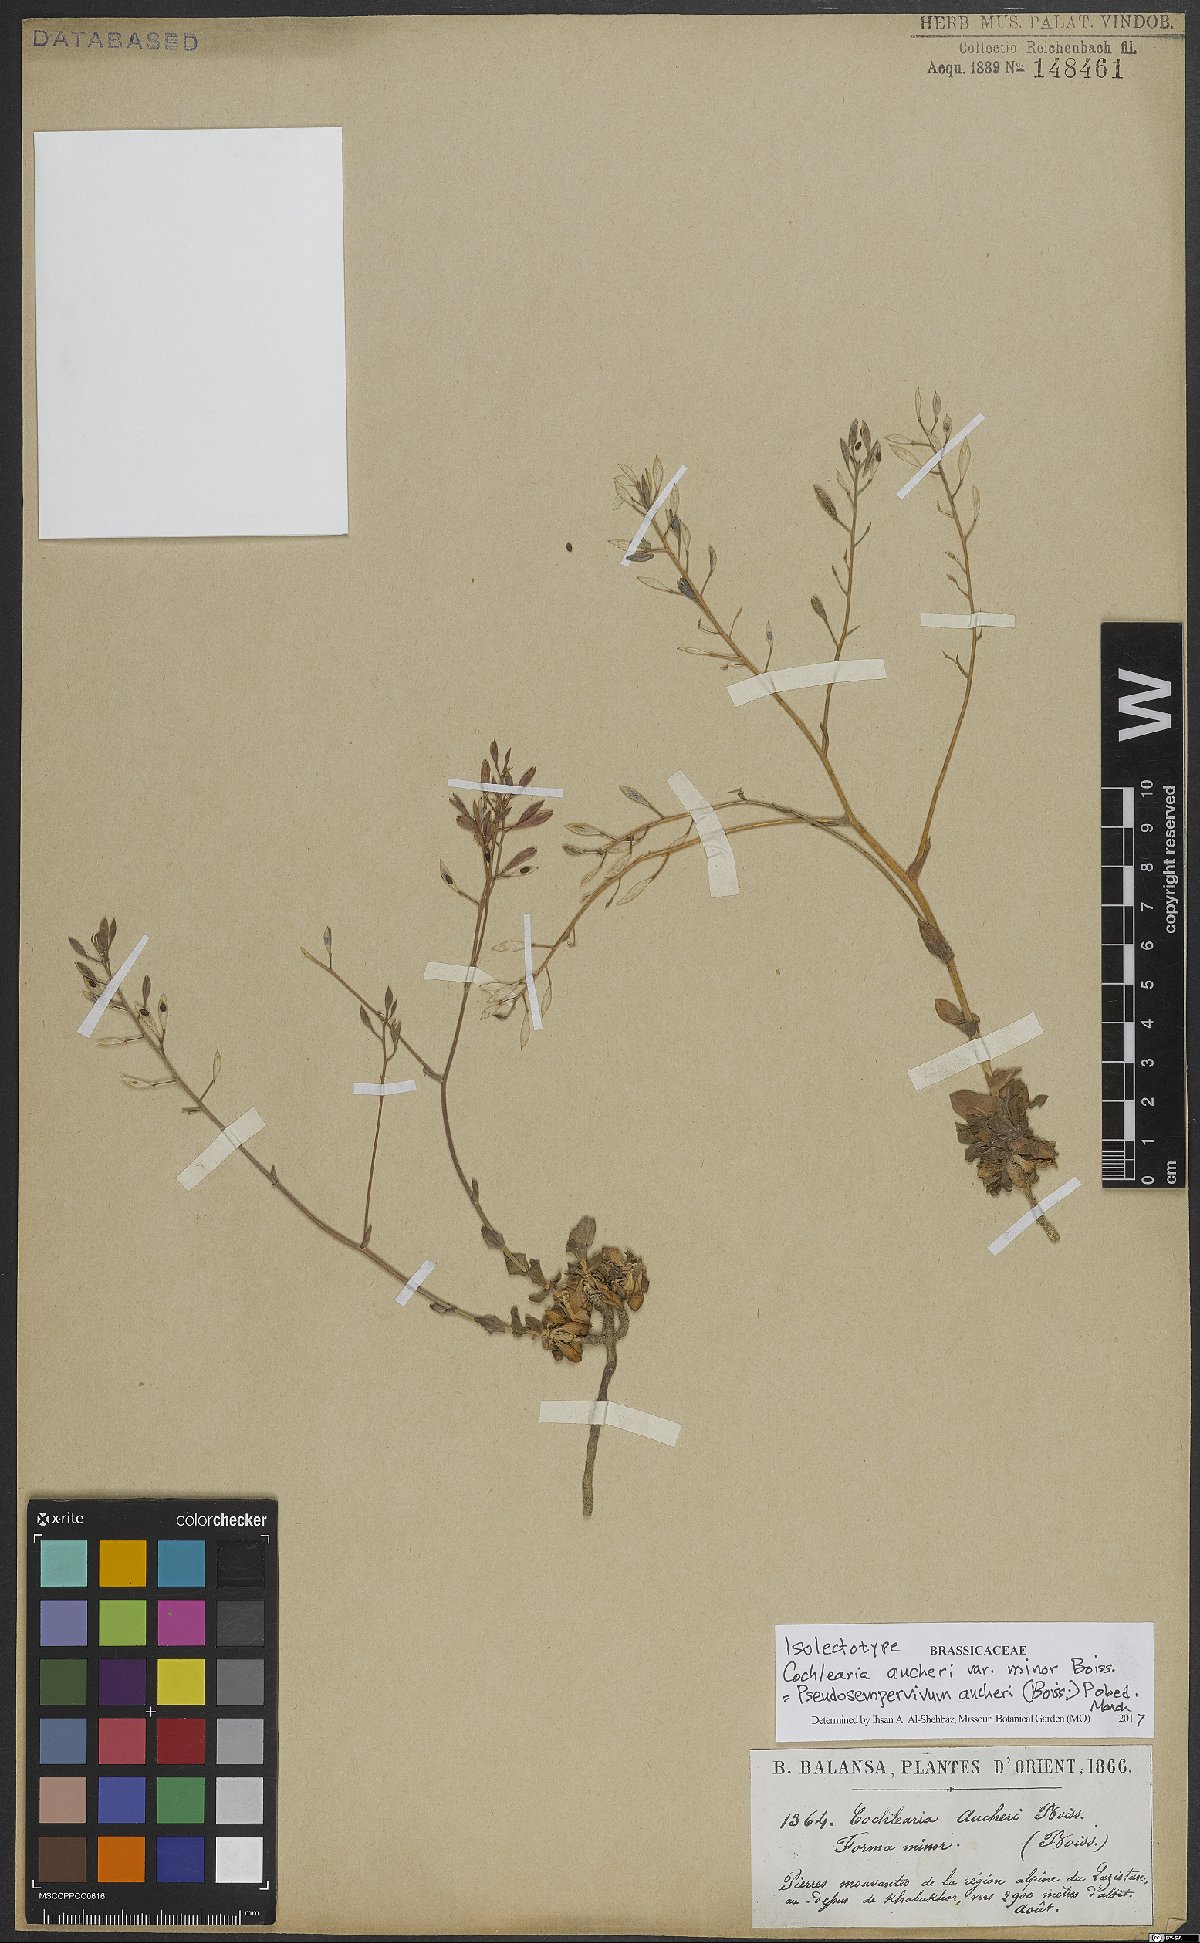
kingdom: Plantae
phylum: Tracheophyta
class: Magnoliopsida
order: Brassicales
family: Brassicaceae
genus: Pseudosempervivum
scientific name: Pseudosempervivum aucheri
